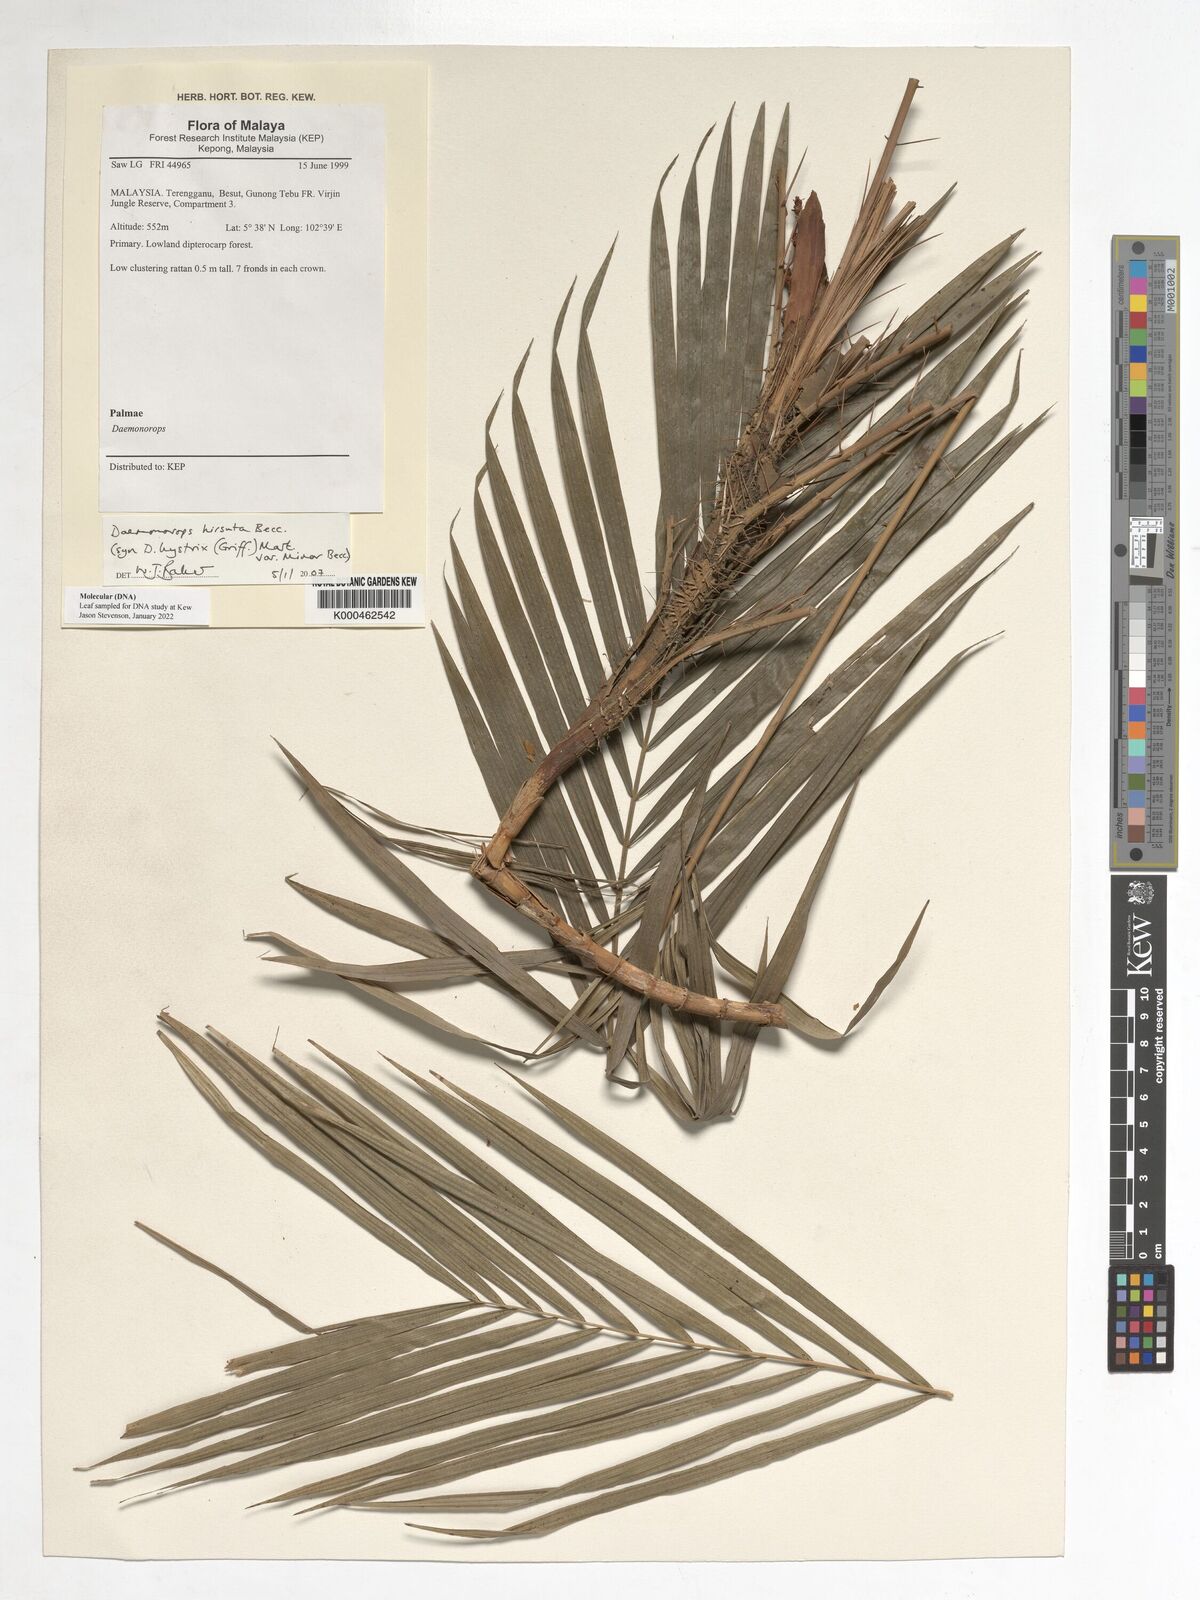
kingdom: Plantae
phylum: Tracheophyta
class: Liliopsida
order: Arecales
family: Arecaceae
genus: Calamus
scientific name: Calamus hirsutus
